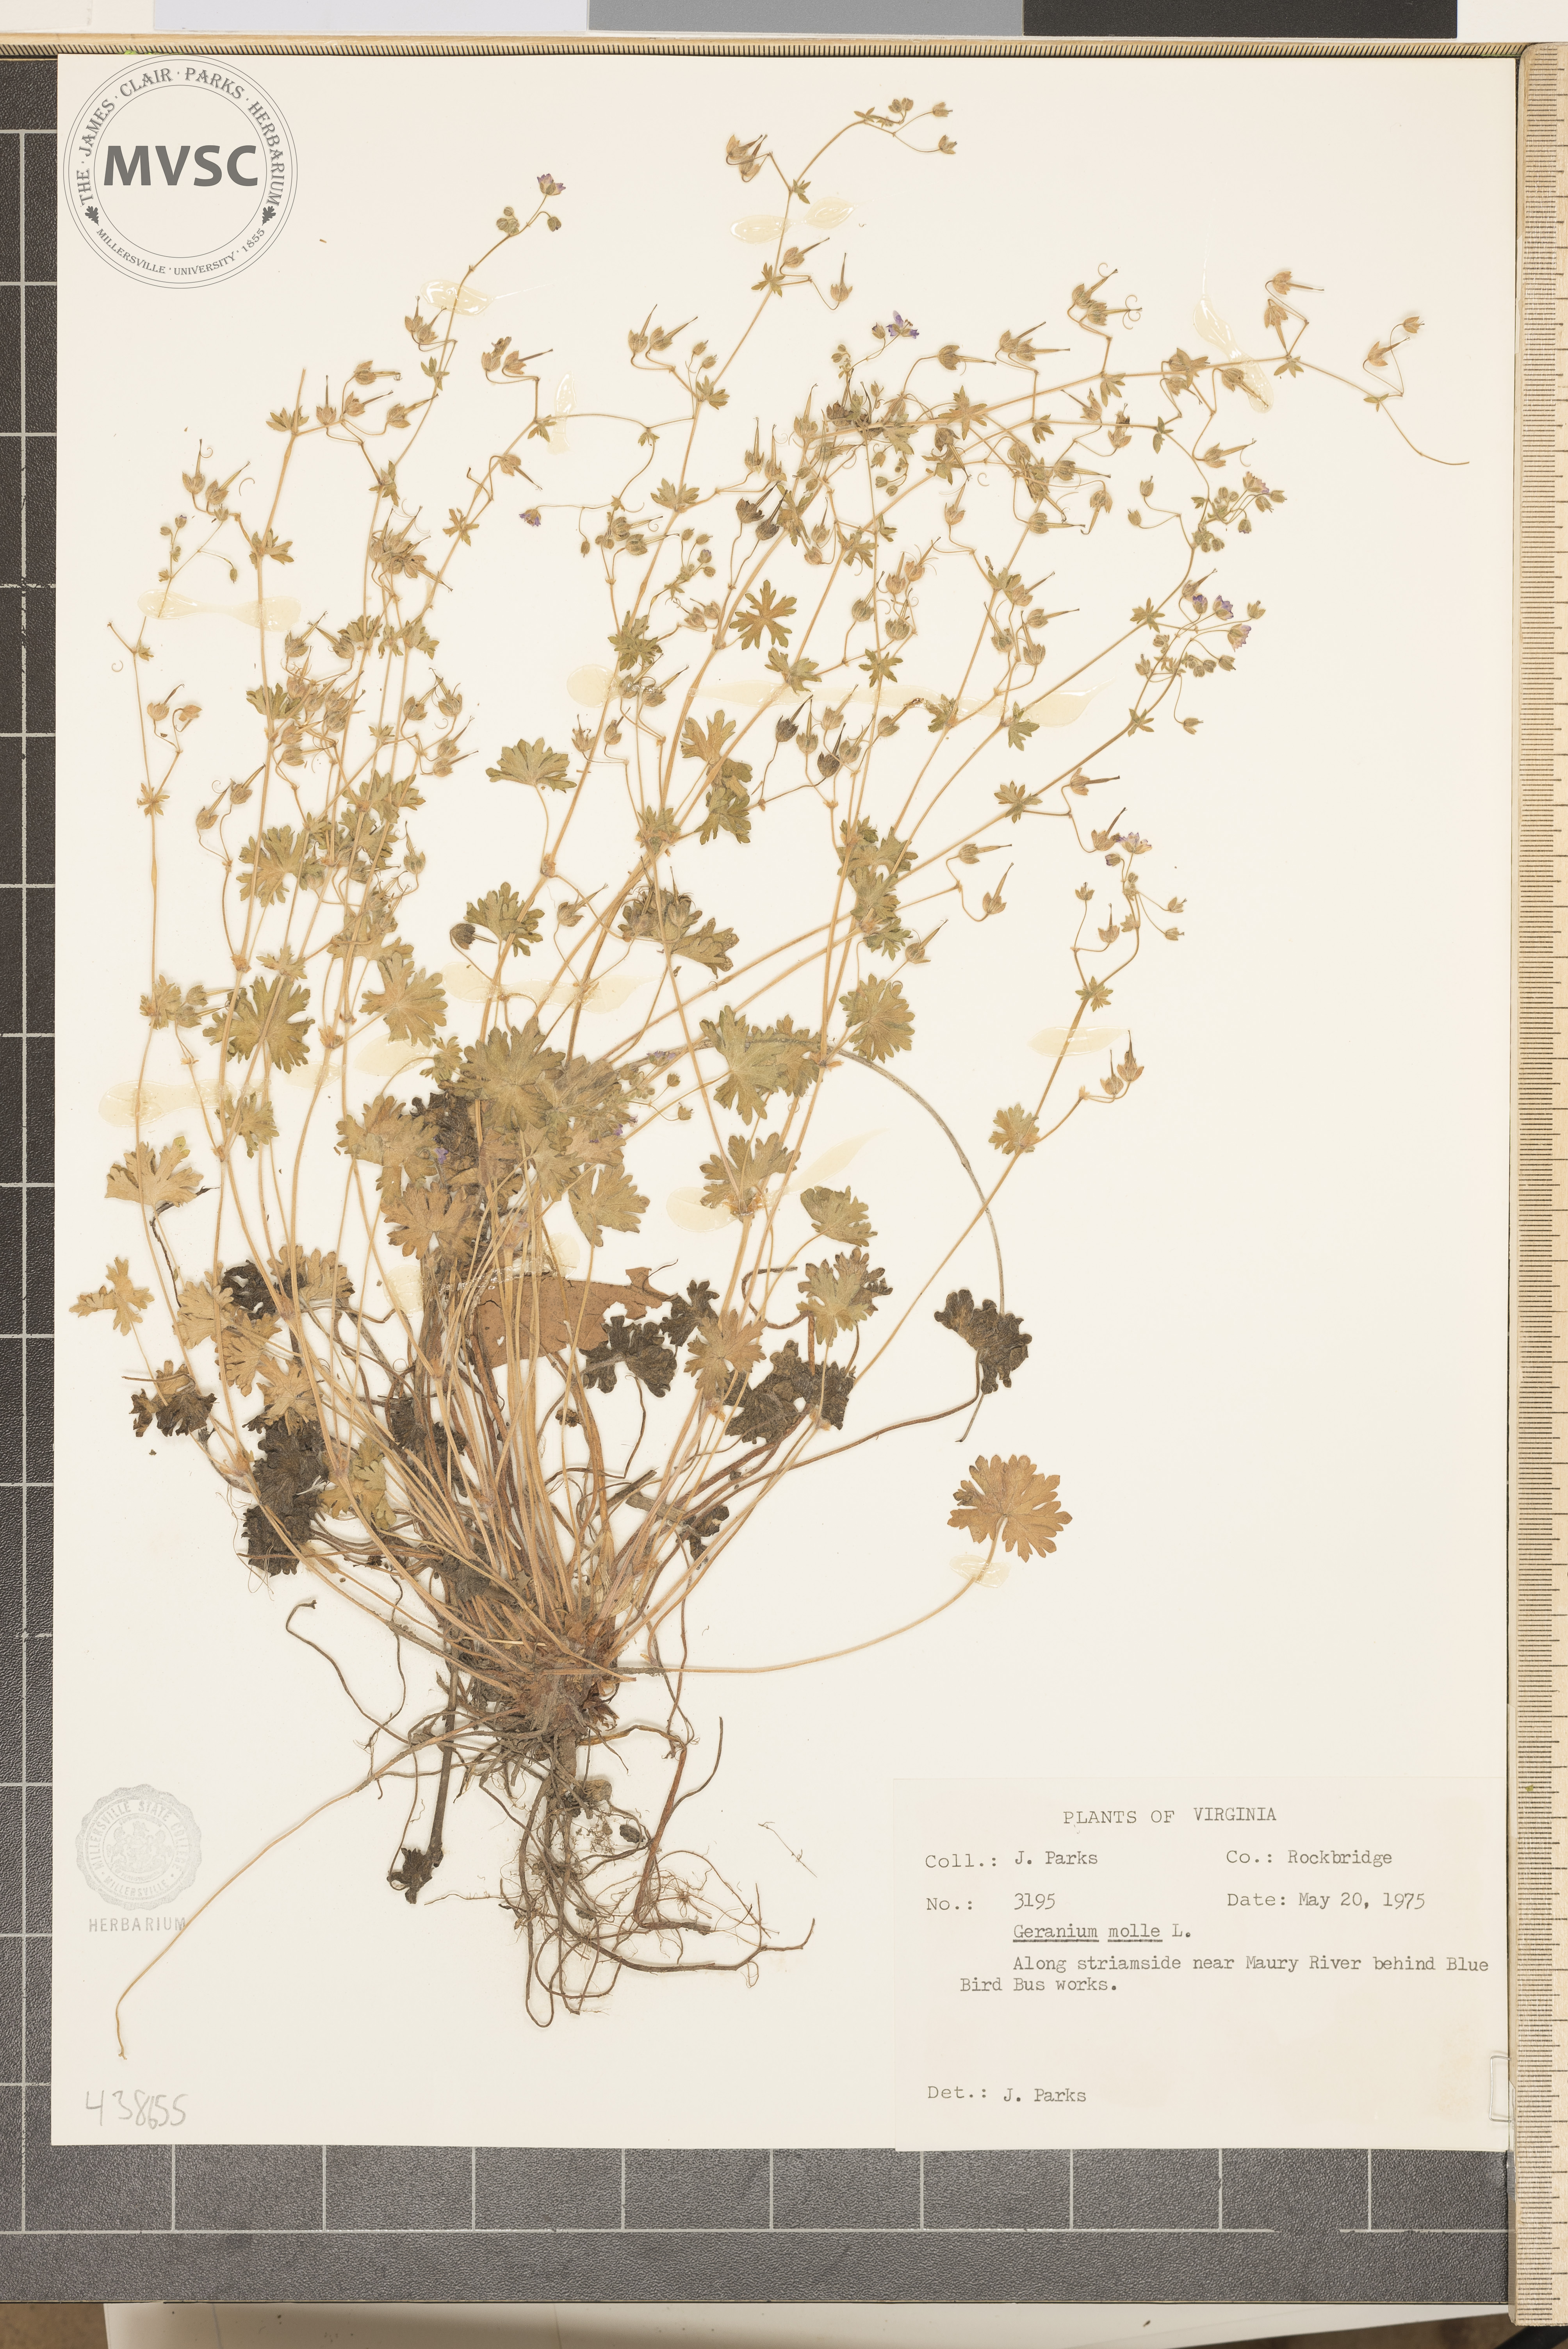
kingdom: Plantae
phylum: Tracheophyta
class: Magnoliopsida
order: Geraniales
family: Geraniaceae
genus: Geranium
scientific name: Geranium molle
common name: Dove's-foot crane's-bill
